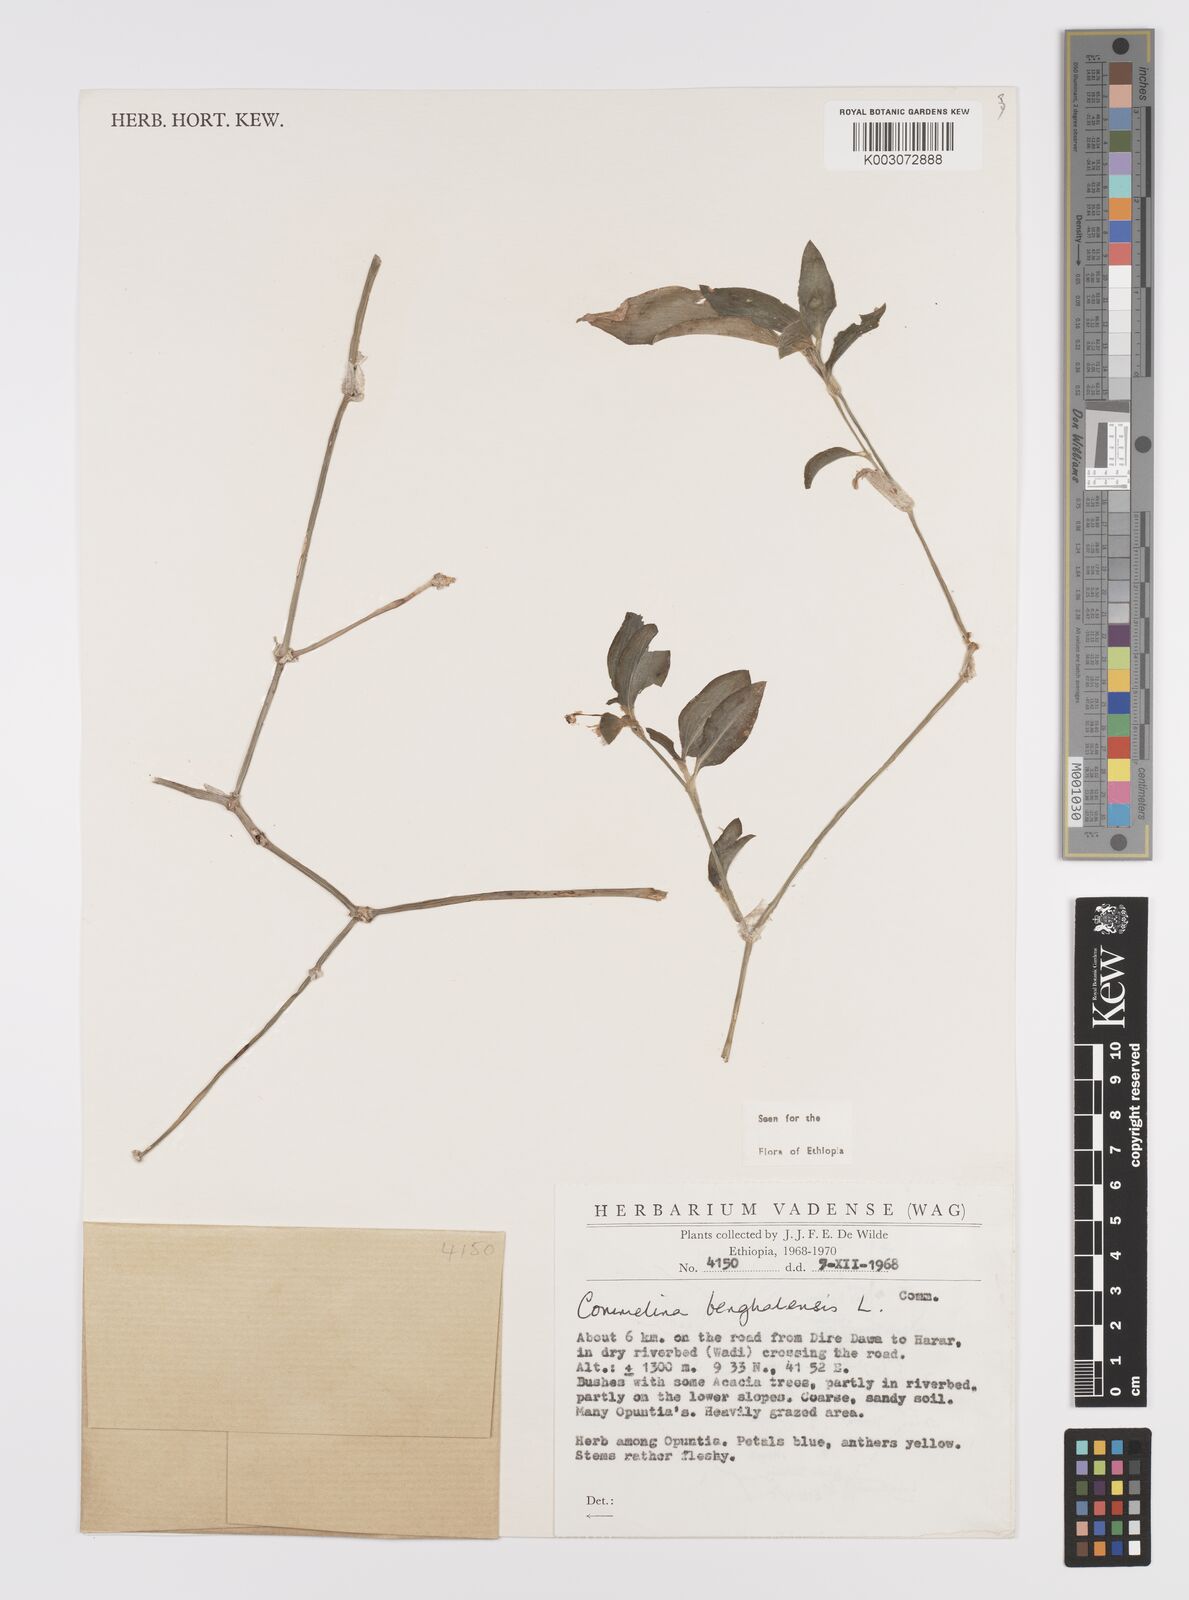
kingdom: Plantae
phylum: Tracheophyta
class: Liliopsida
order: Commelinales
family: Commelinaceae
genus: Commelina
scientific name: Commelina benghalensis
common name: Jio
